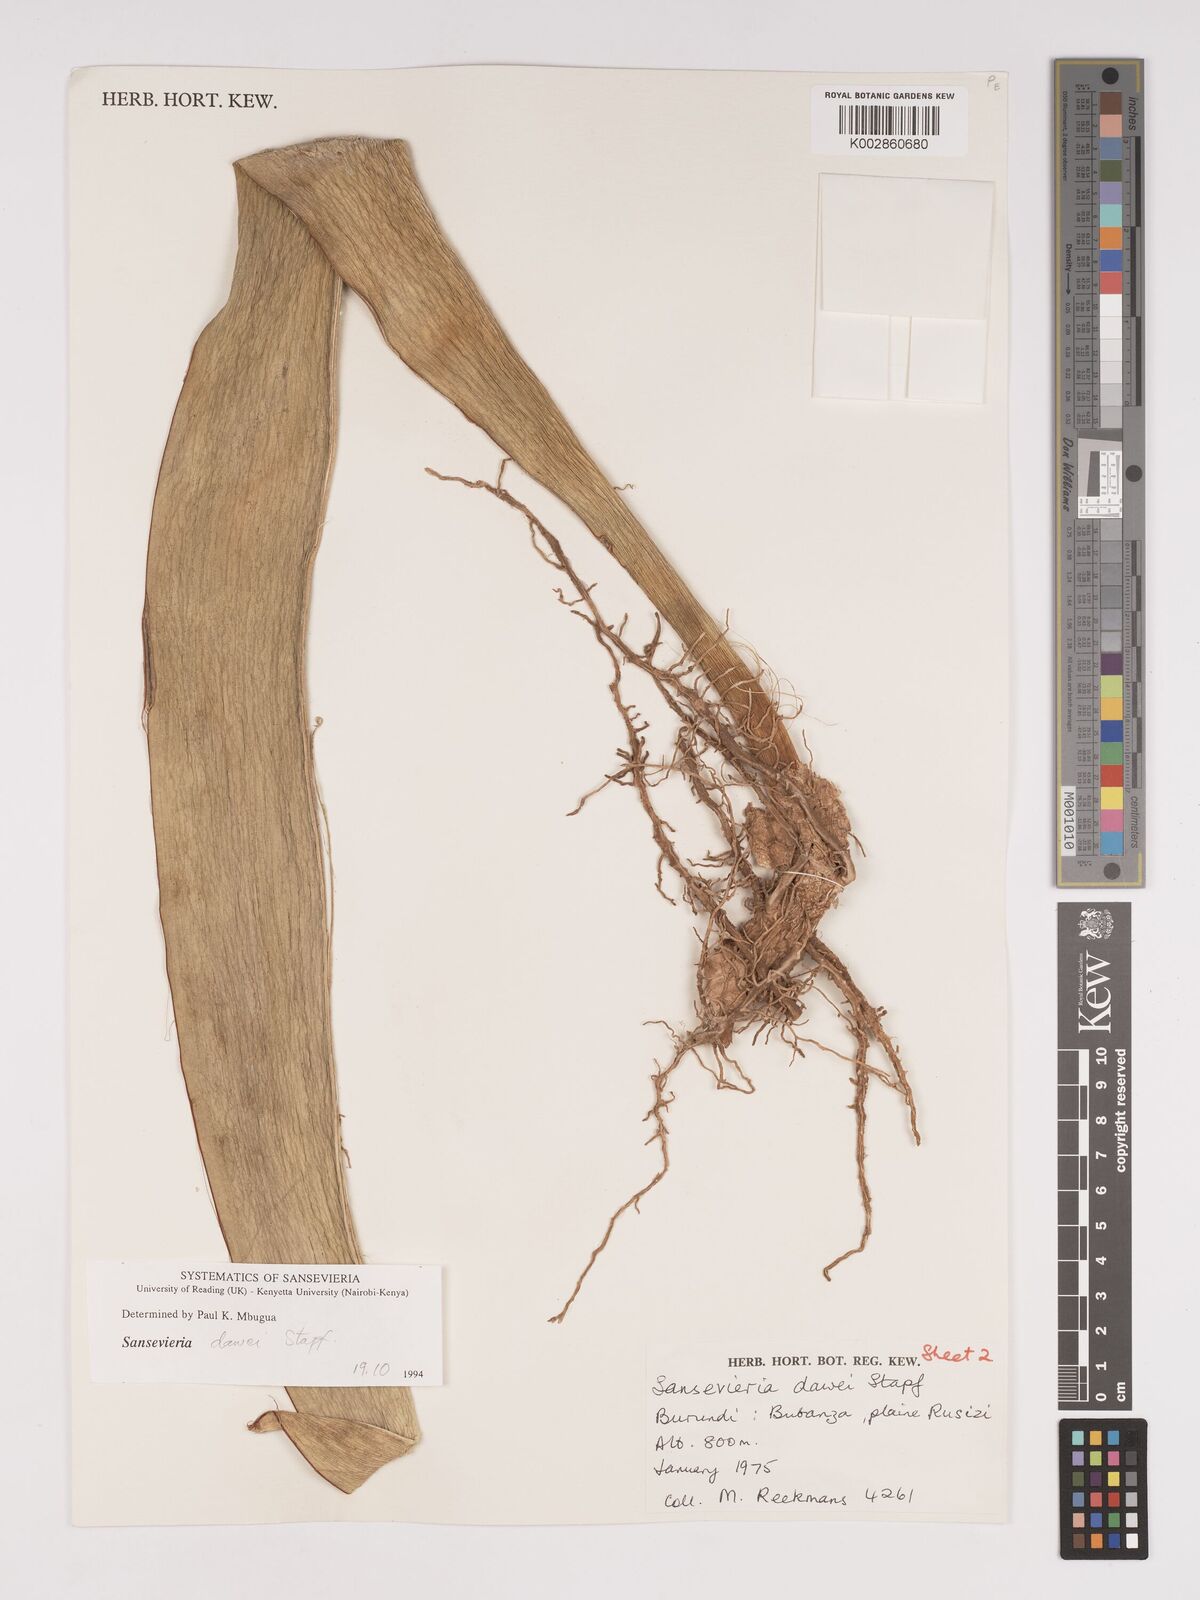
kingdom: Plantae
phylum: Tracheophyta
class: Liliopsida
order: Asparagales
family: Asparagaceae
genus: Dracaena
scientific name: Dracaena dawei
